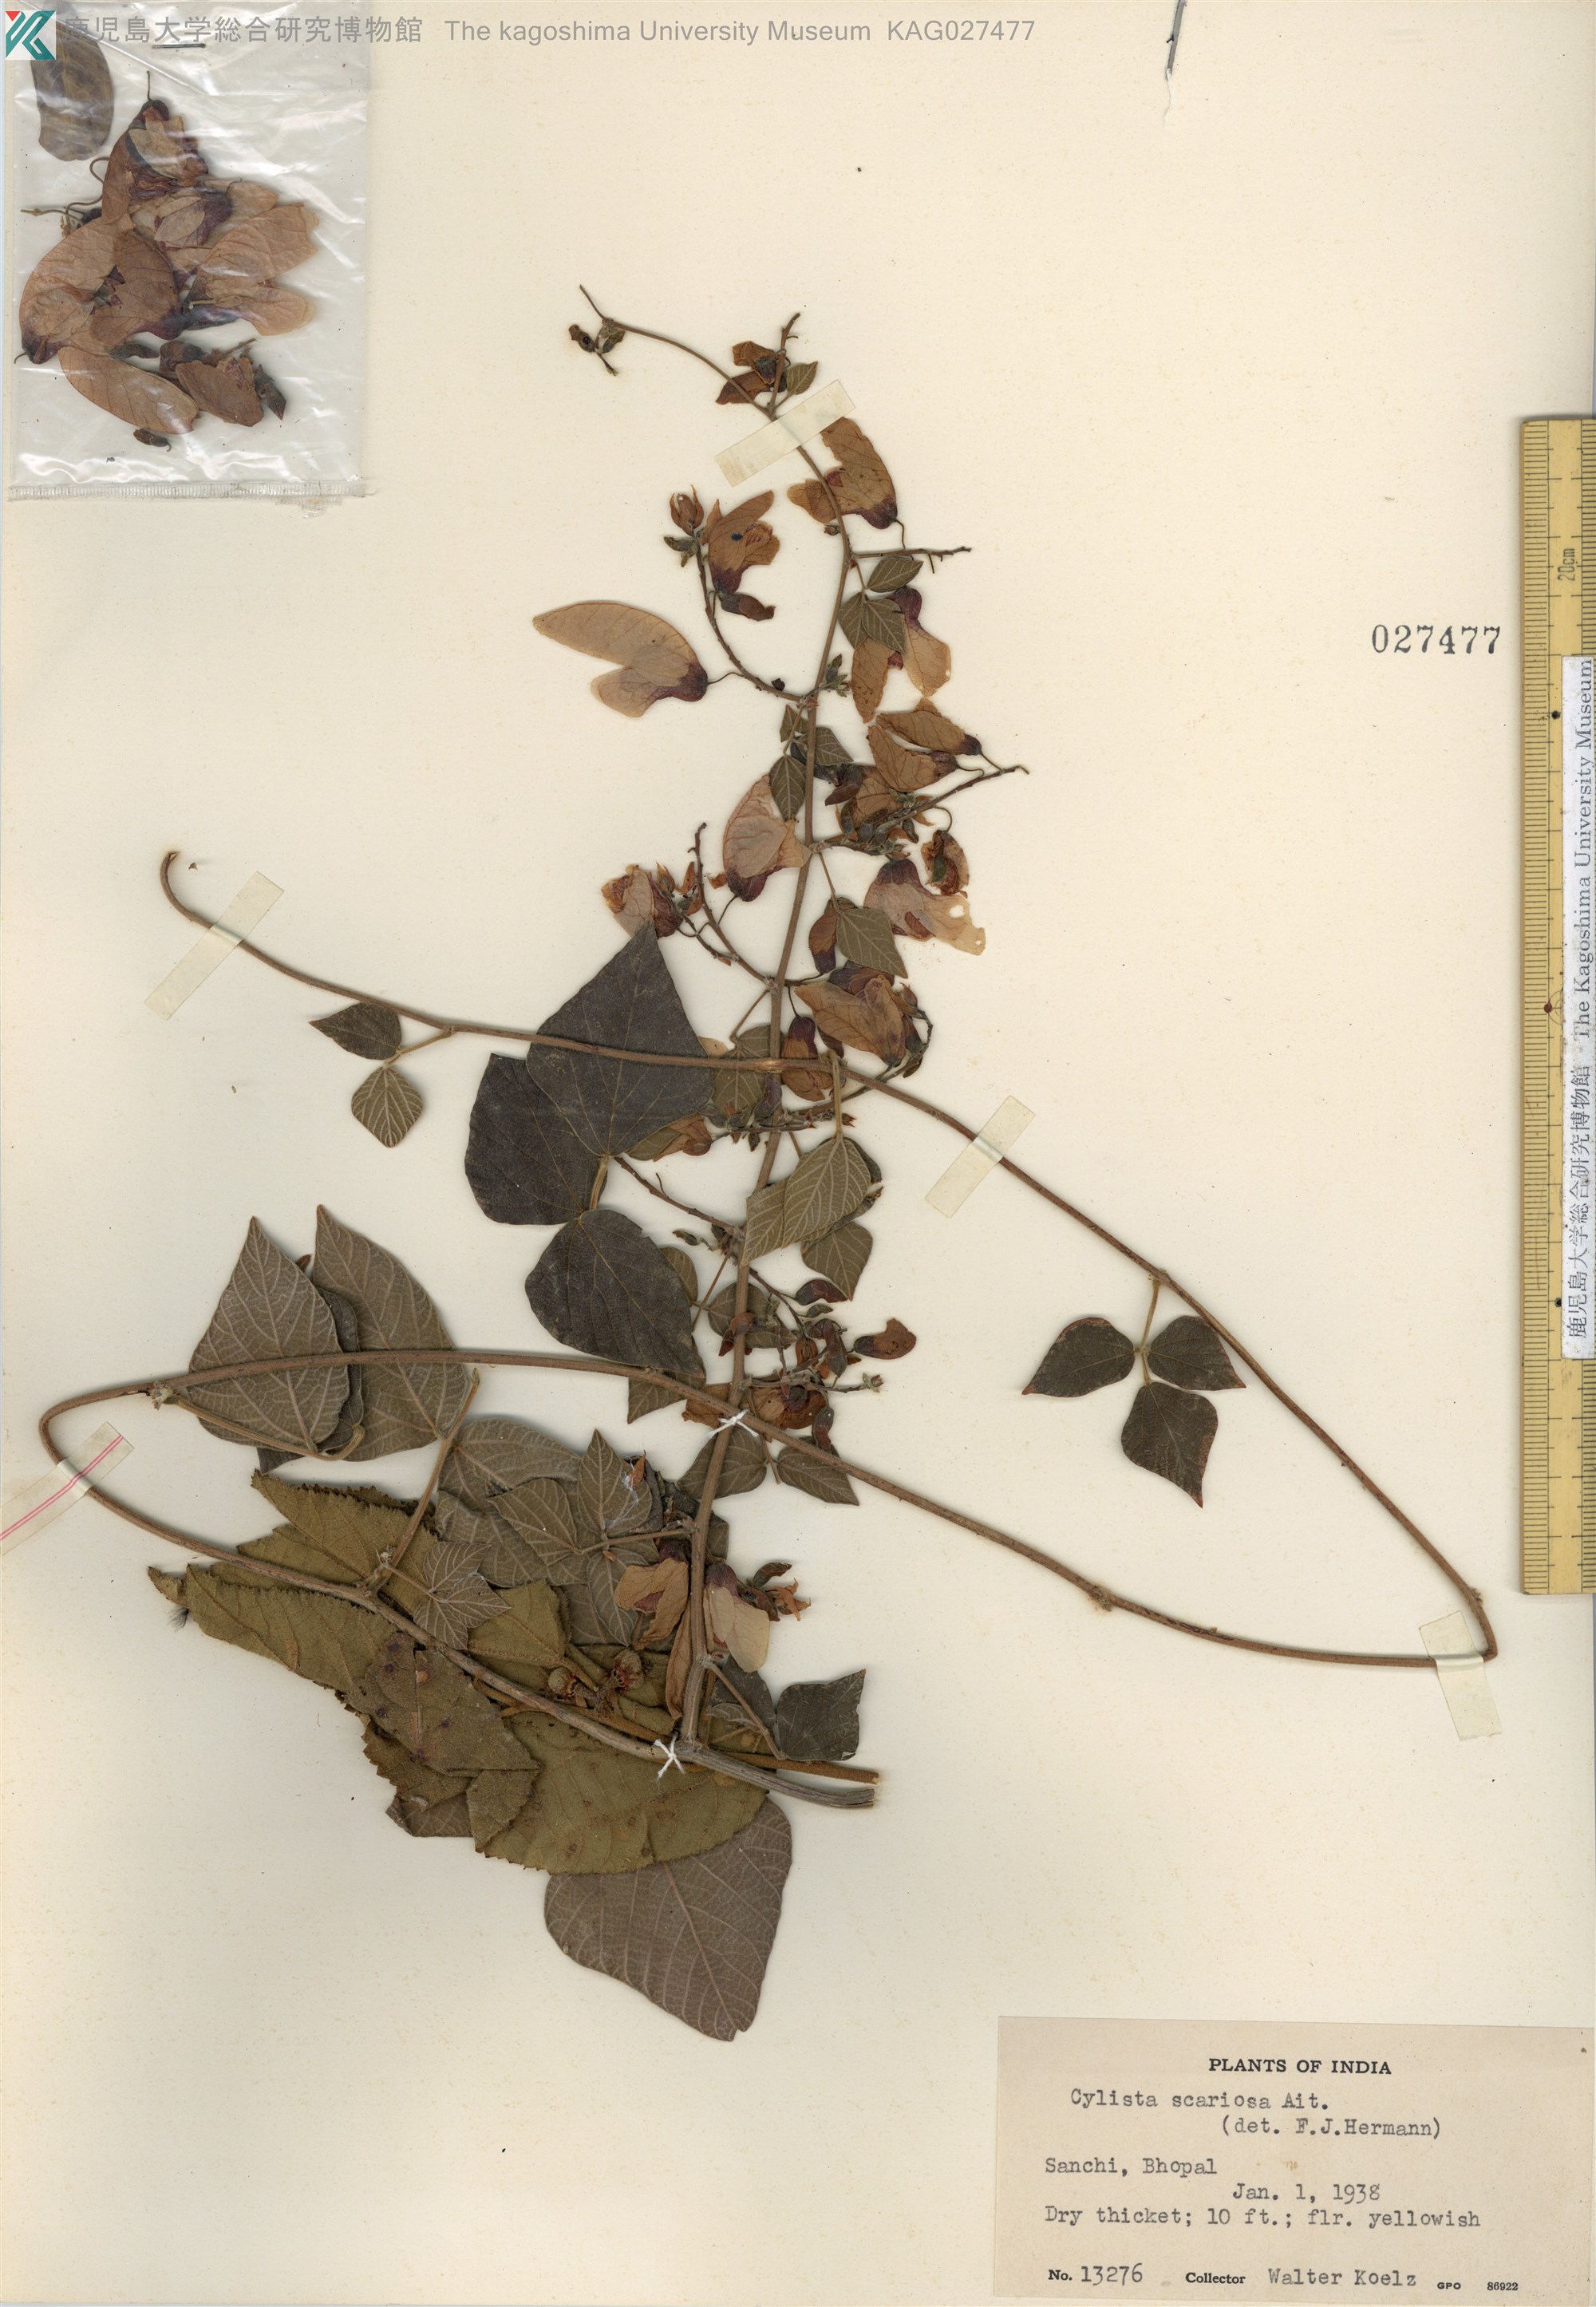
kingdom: Plantae
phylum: Tracheophyta
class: Magnoliopsida
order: Fabales
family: Fabaceae
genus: Paracalyx
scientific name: Paracalyx scariosus
